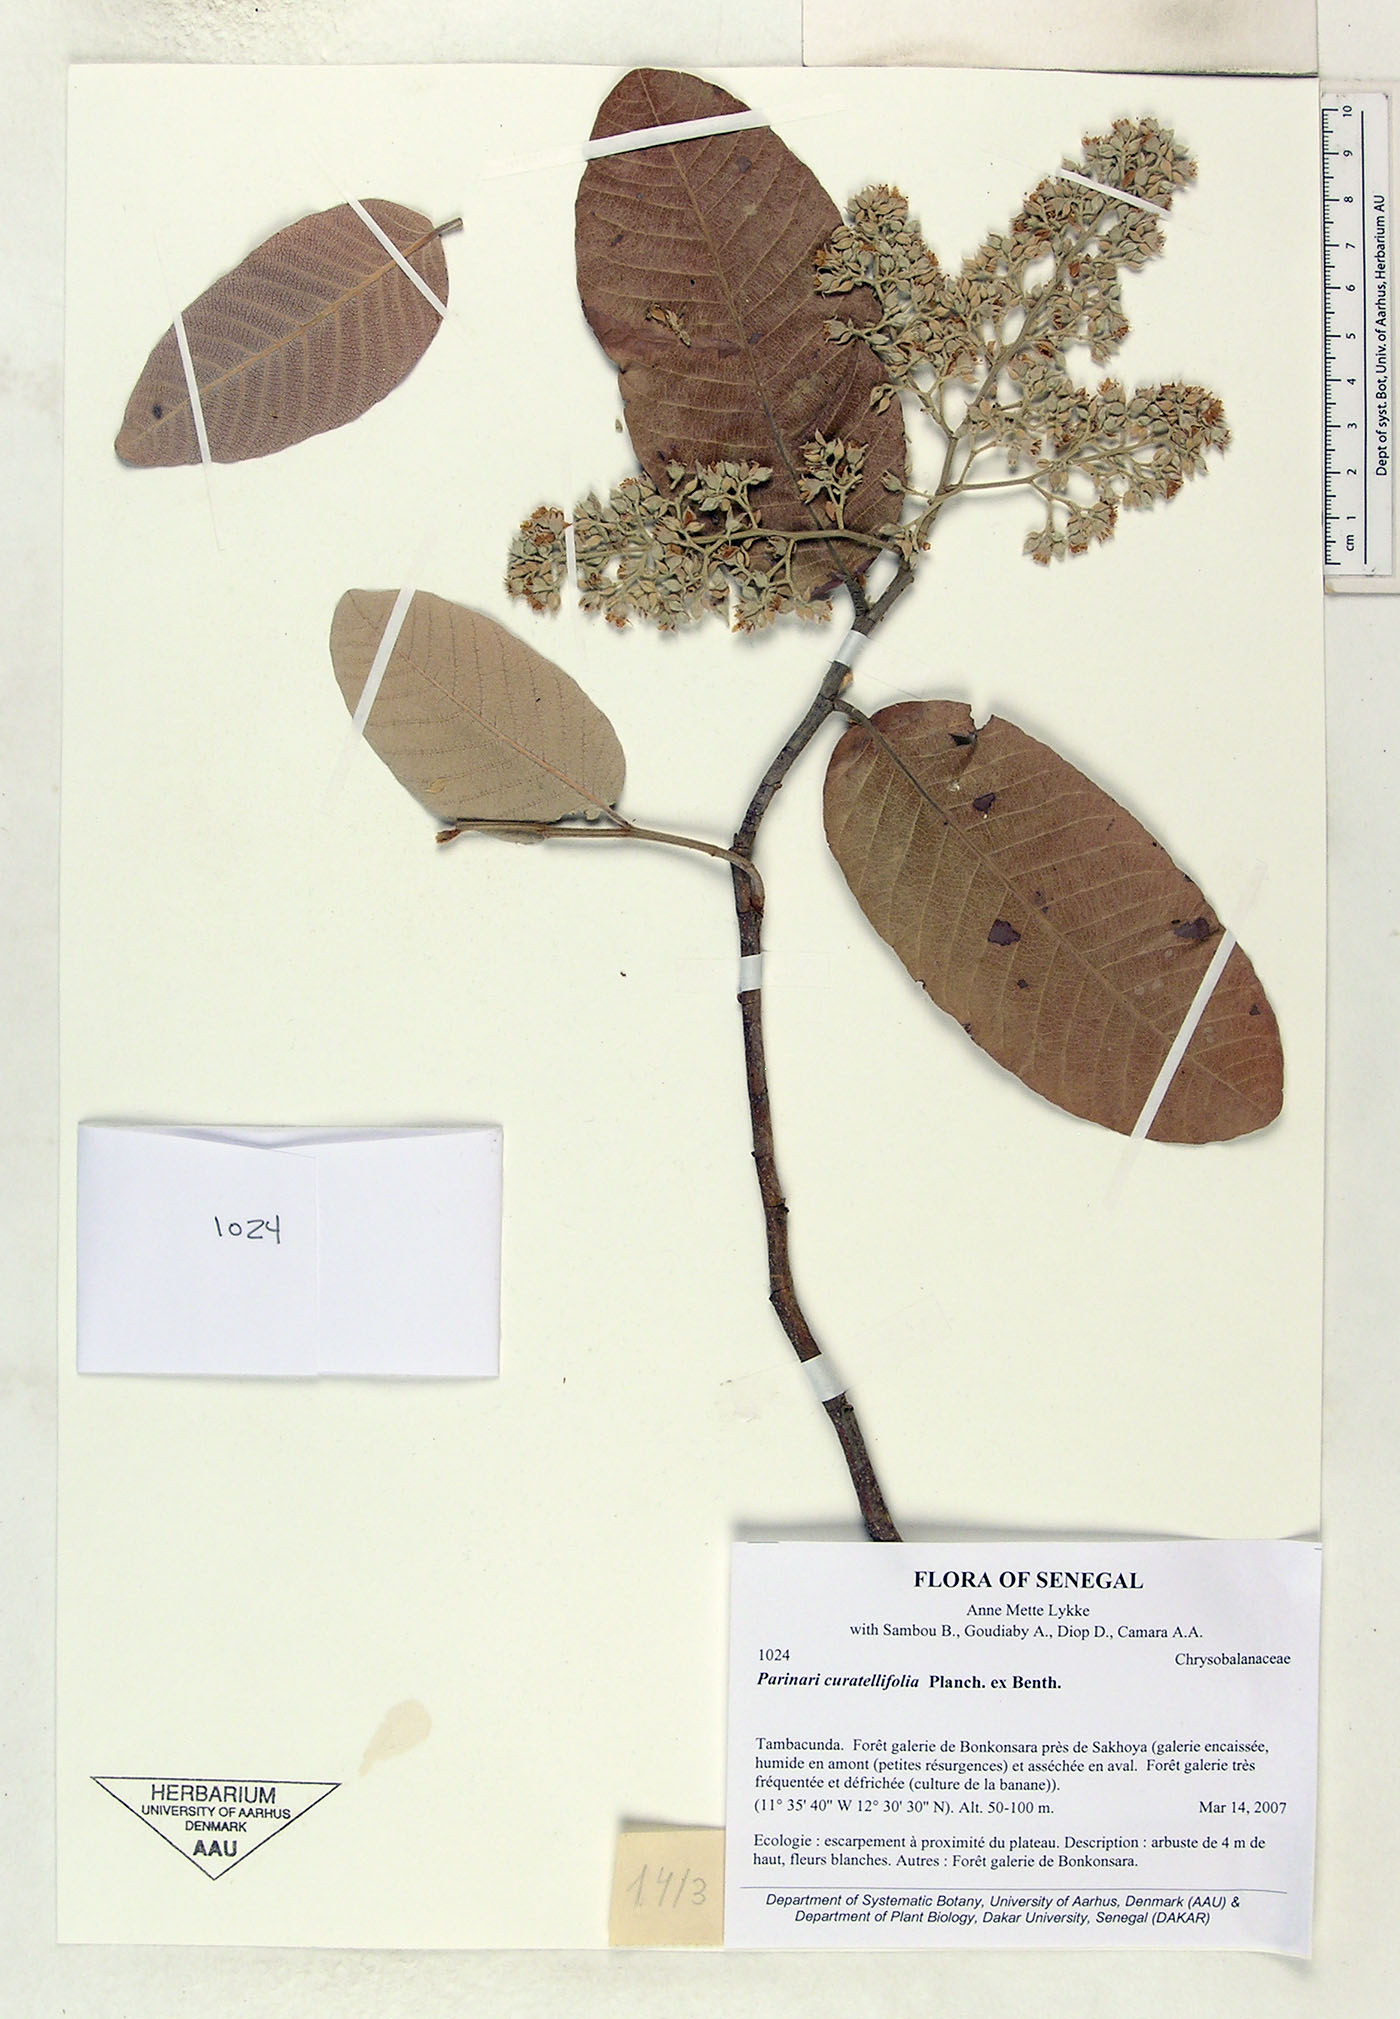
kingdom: Plantae
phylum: Tracheophyta
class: Magnoliopsida
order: Malpighiales
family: Chrysobalanaceae
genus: Parinari
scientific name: Parinari curatellifolia
